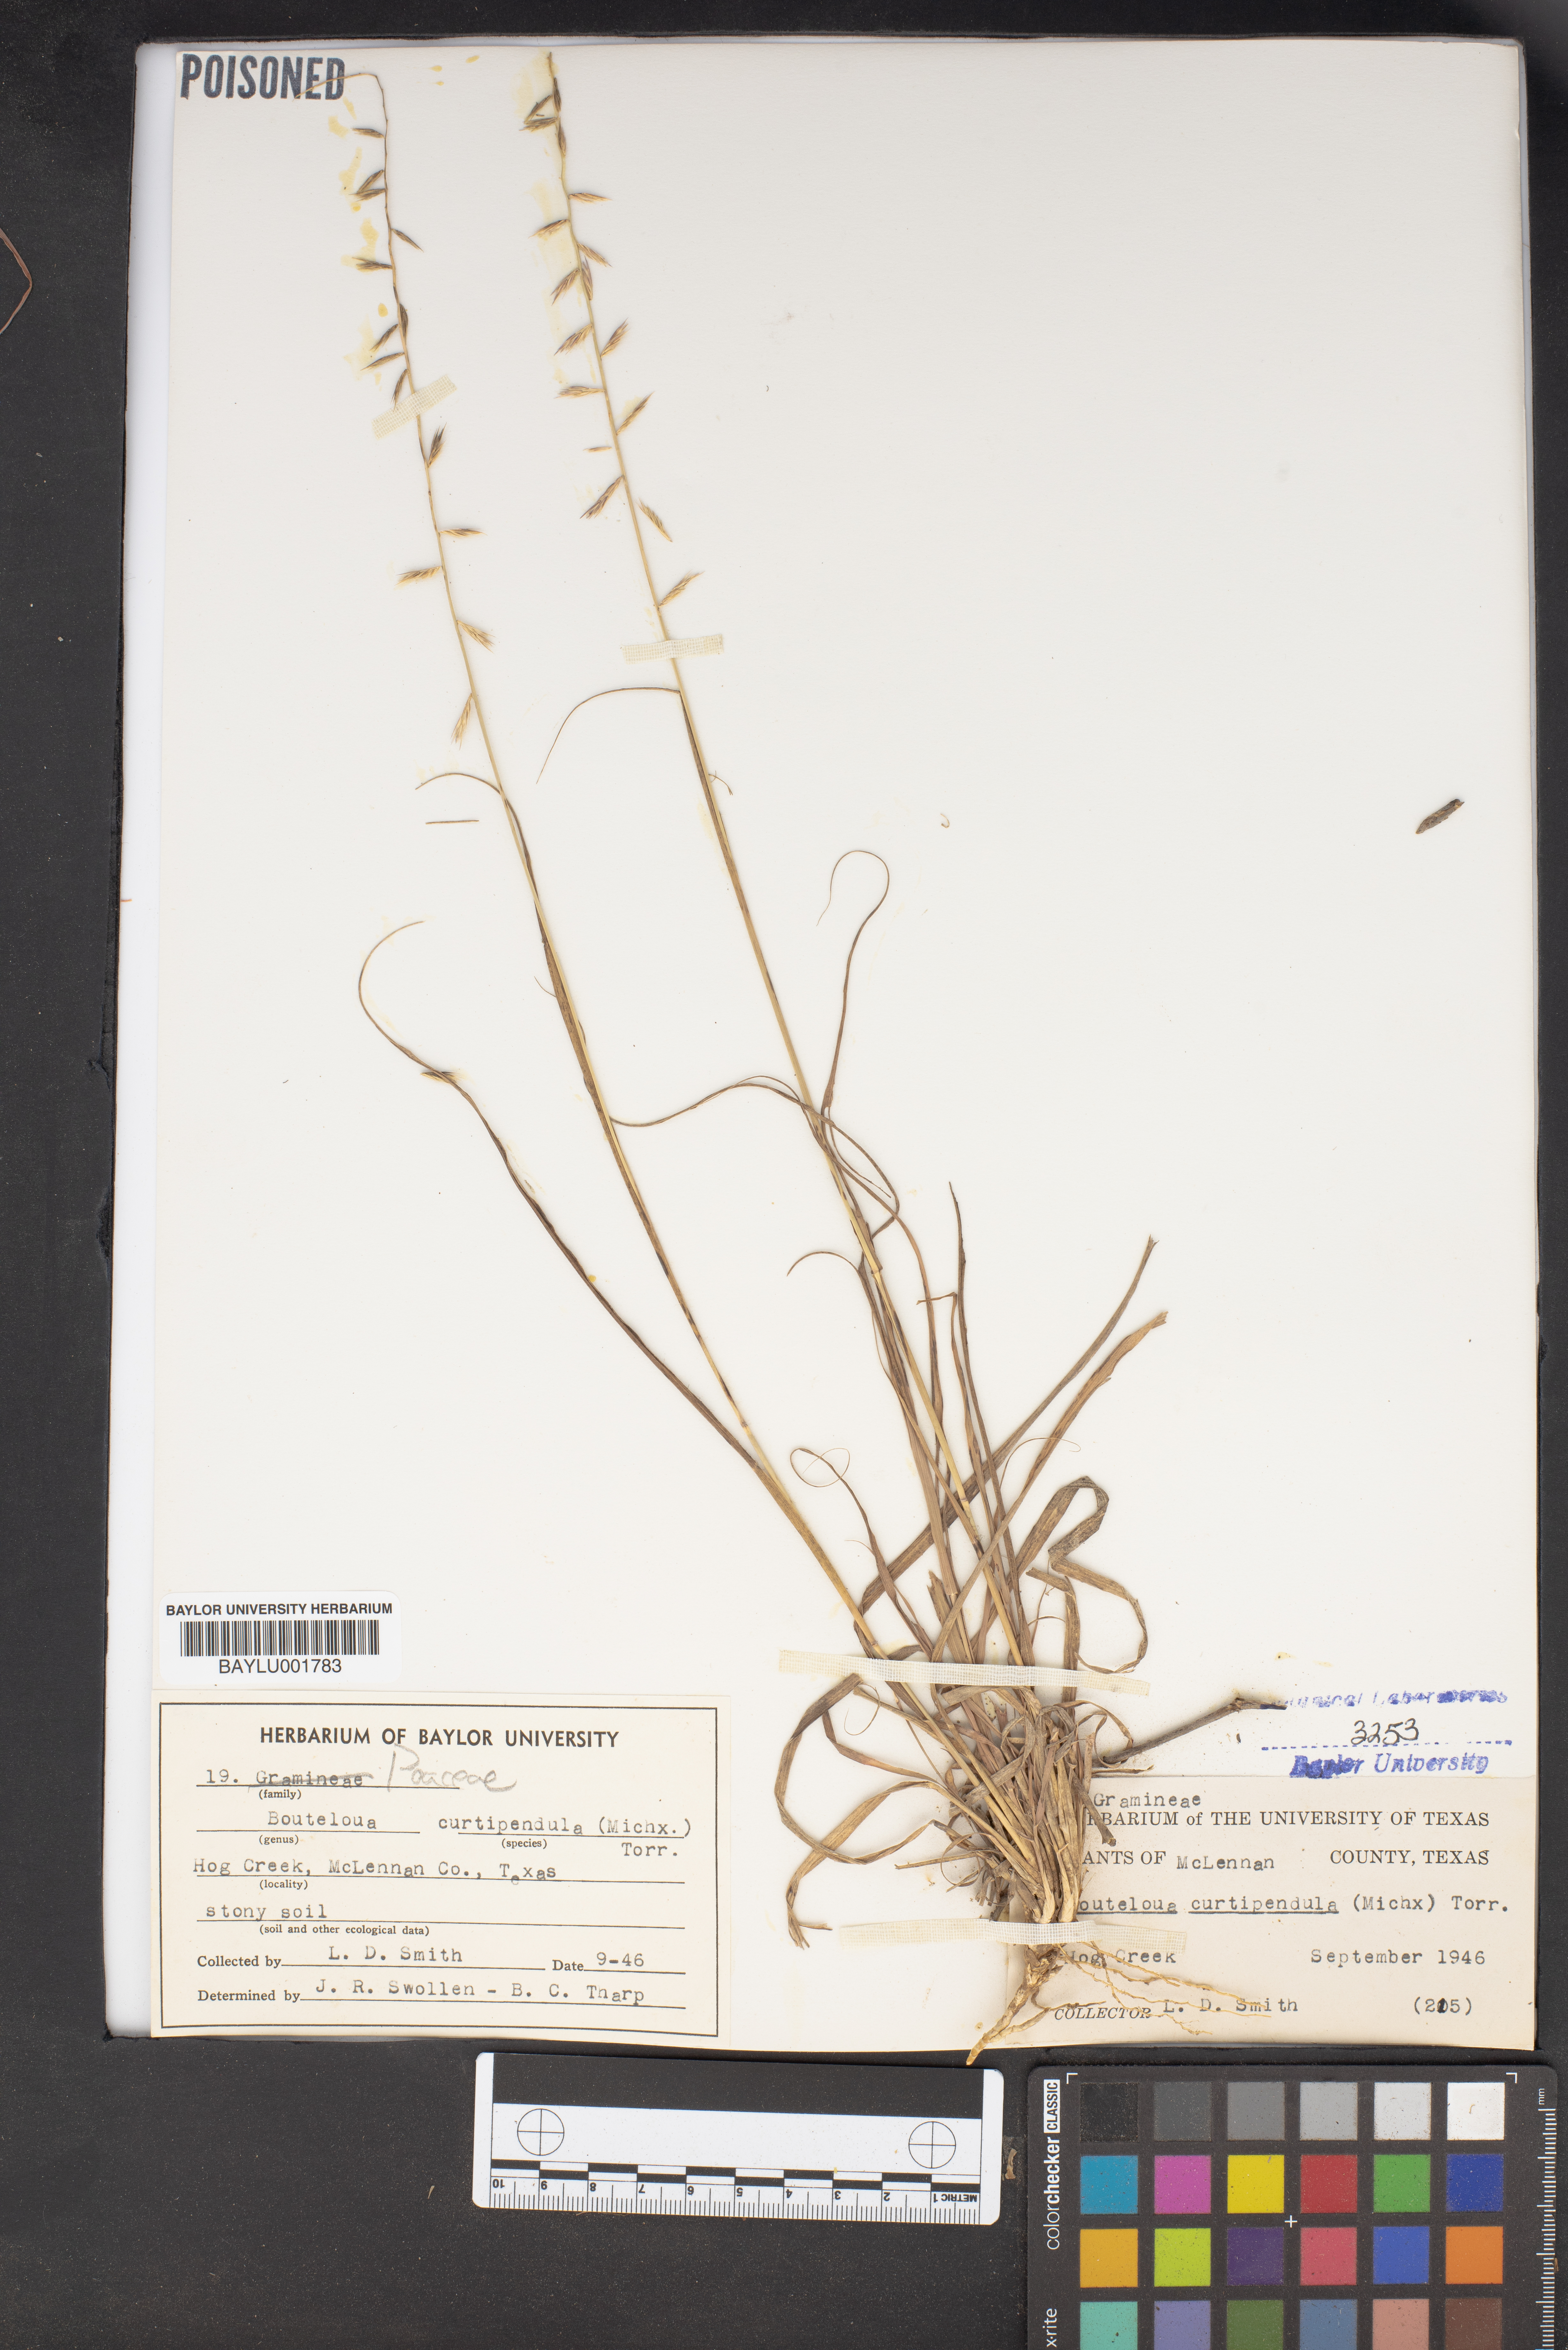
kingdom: Plantae
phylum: Tracheophyta
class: Liliopsida
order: Poales
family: Poaceae
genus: Bouteloua
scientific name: Bouteloua curtipendula
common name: Side-oats grama
